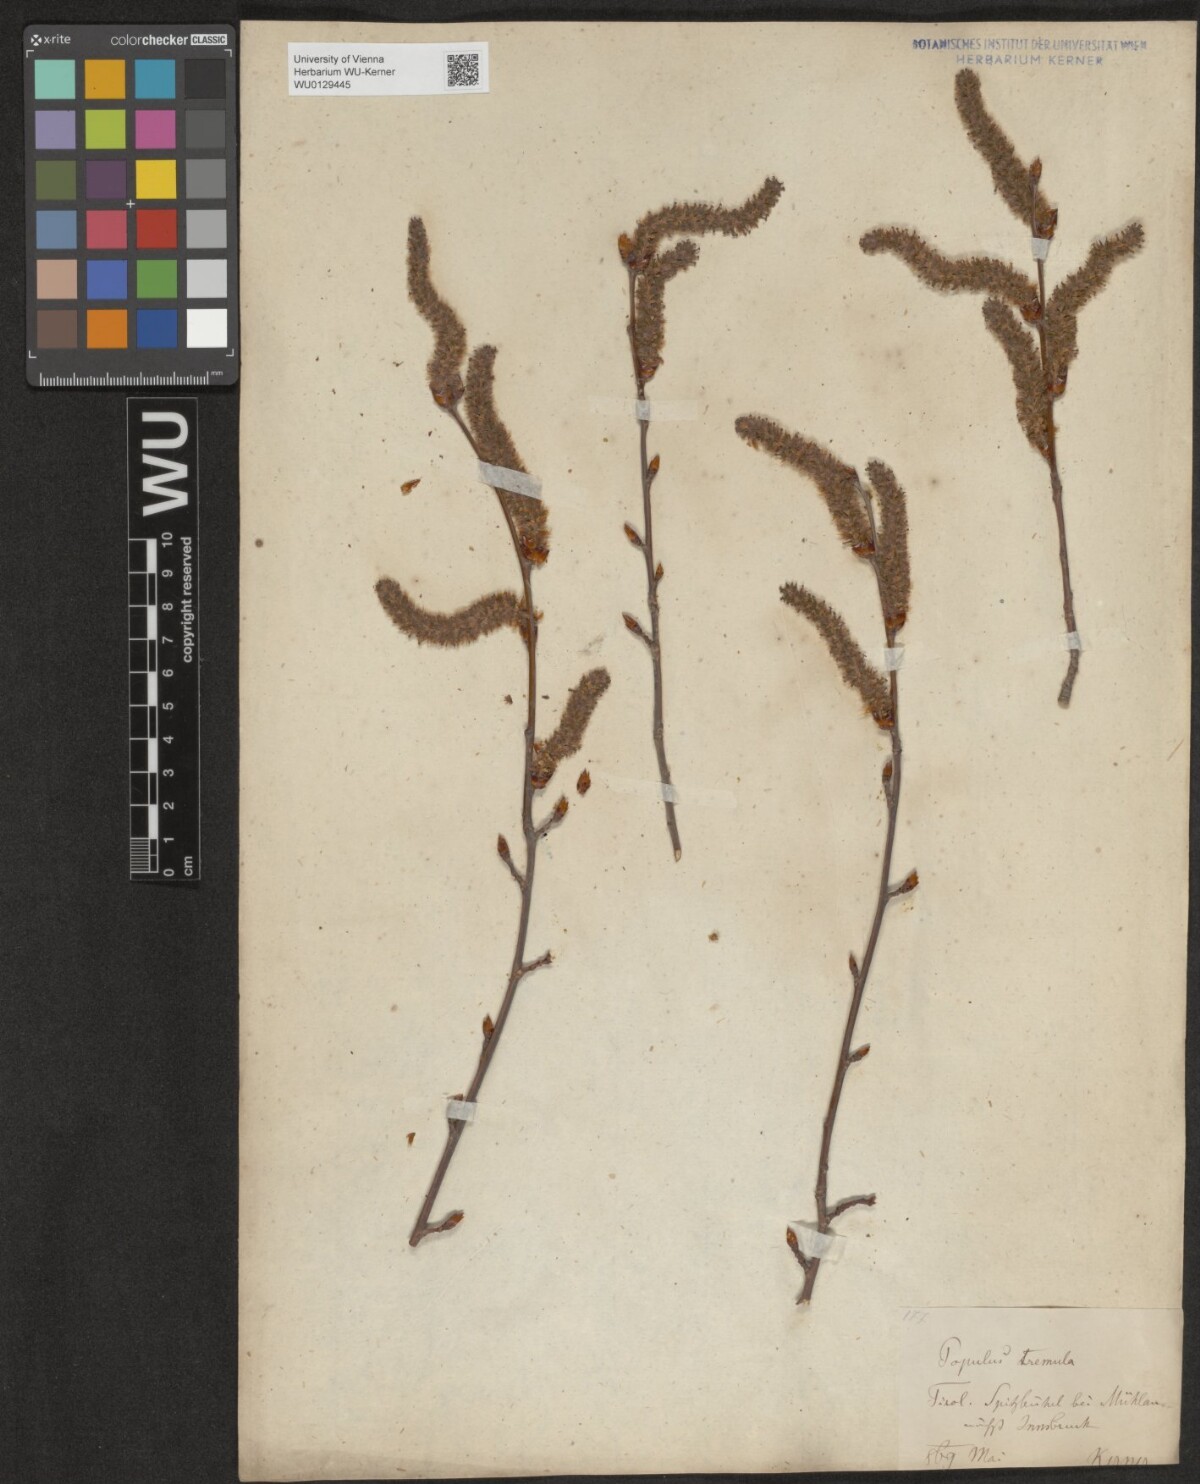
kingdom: Plantae
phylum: Tracheophyta
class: Magnoliopsida
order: Malpighiales
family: Salicaceae
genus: Populus
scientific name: Populus tremula
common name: European aspen
